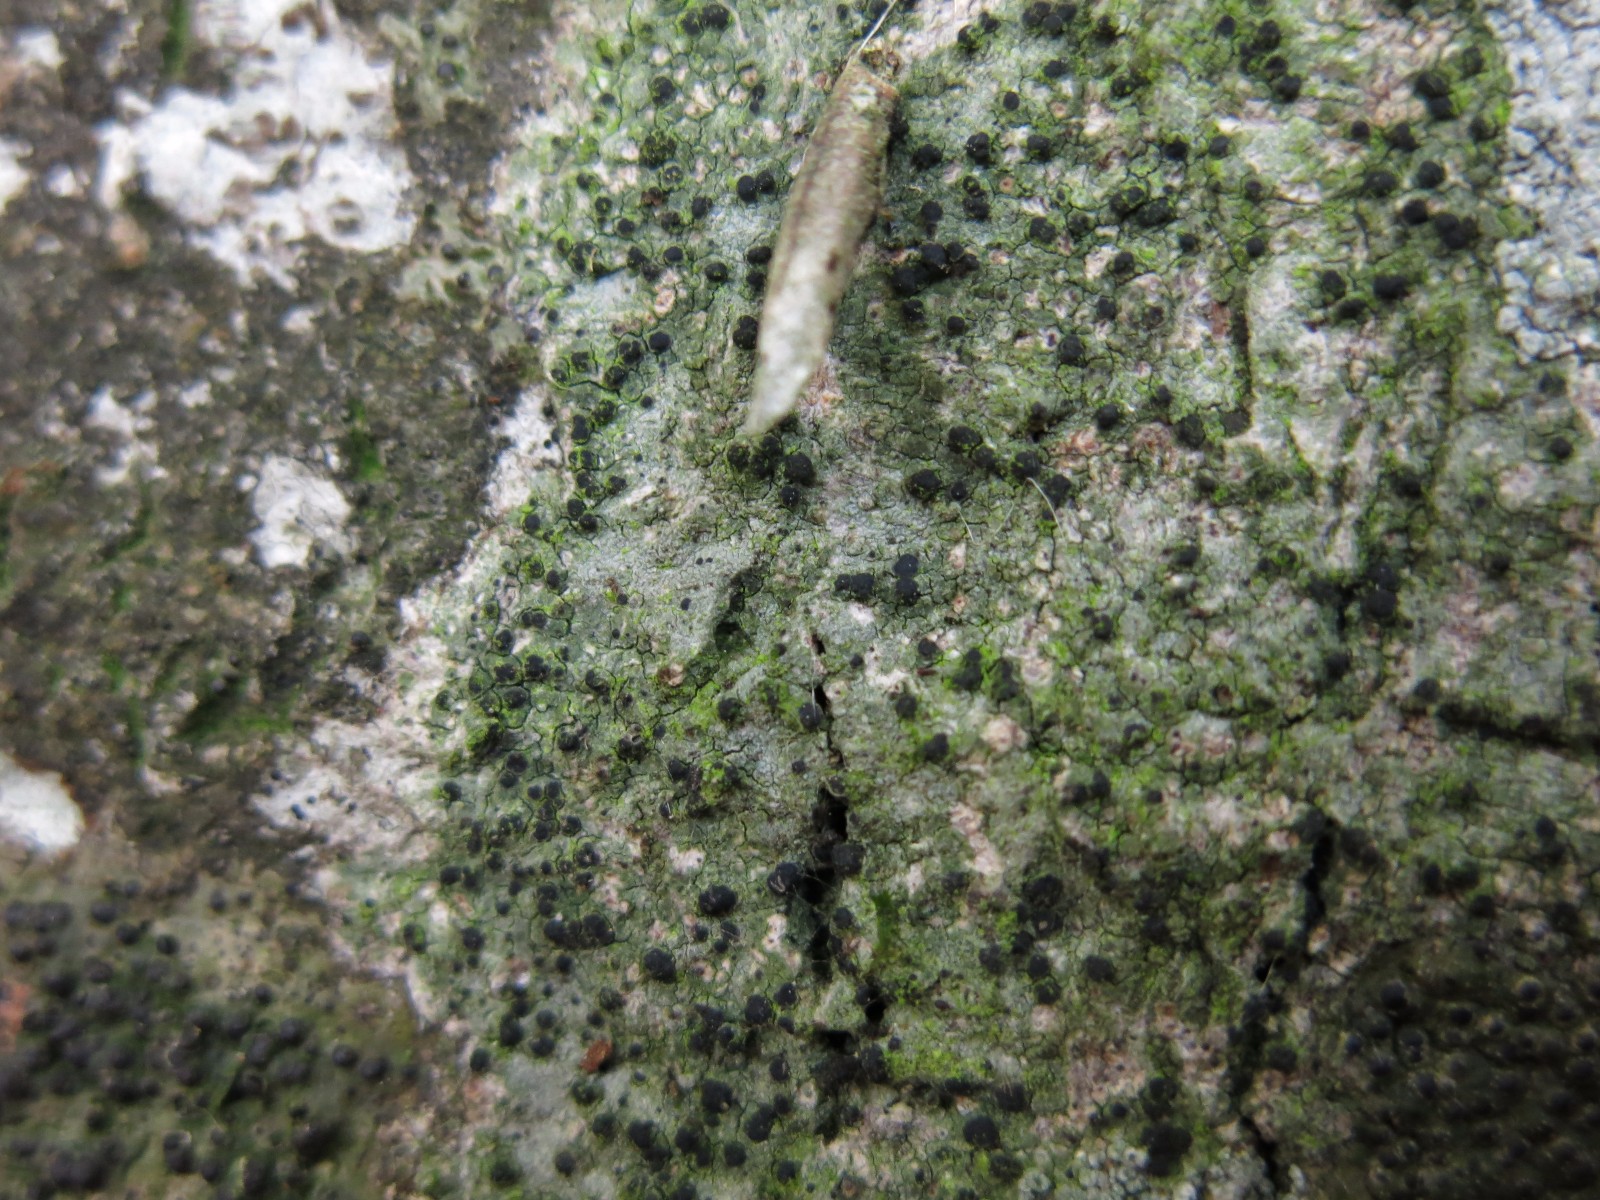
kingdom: Fungi
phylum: Ascomycota
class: Lecanoromycetes
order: Lecanorales
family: Ramalinaceae
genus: Megalaria
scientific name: Megalaria laureri
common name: bøge-megalaria
